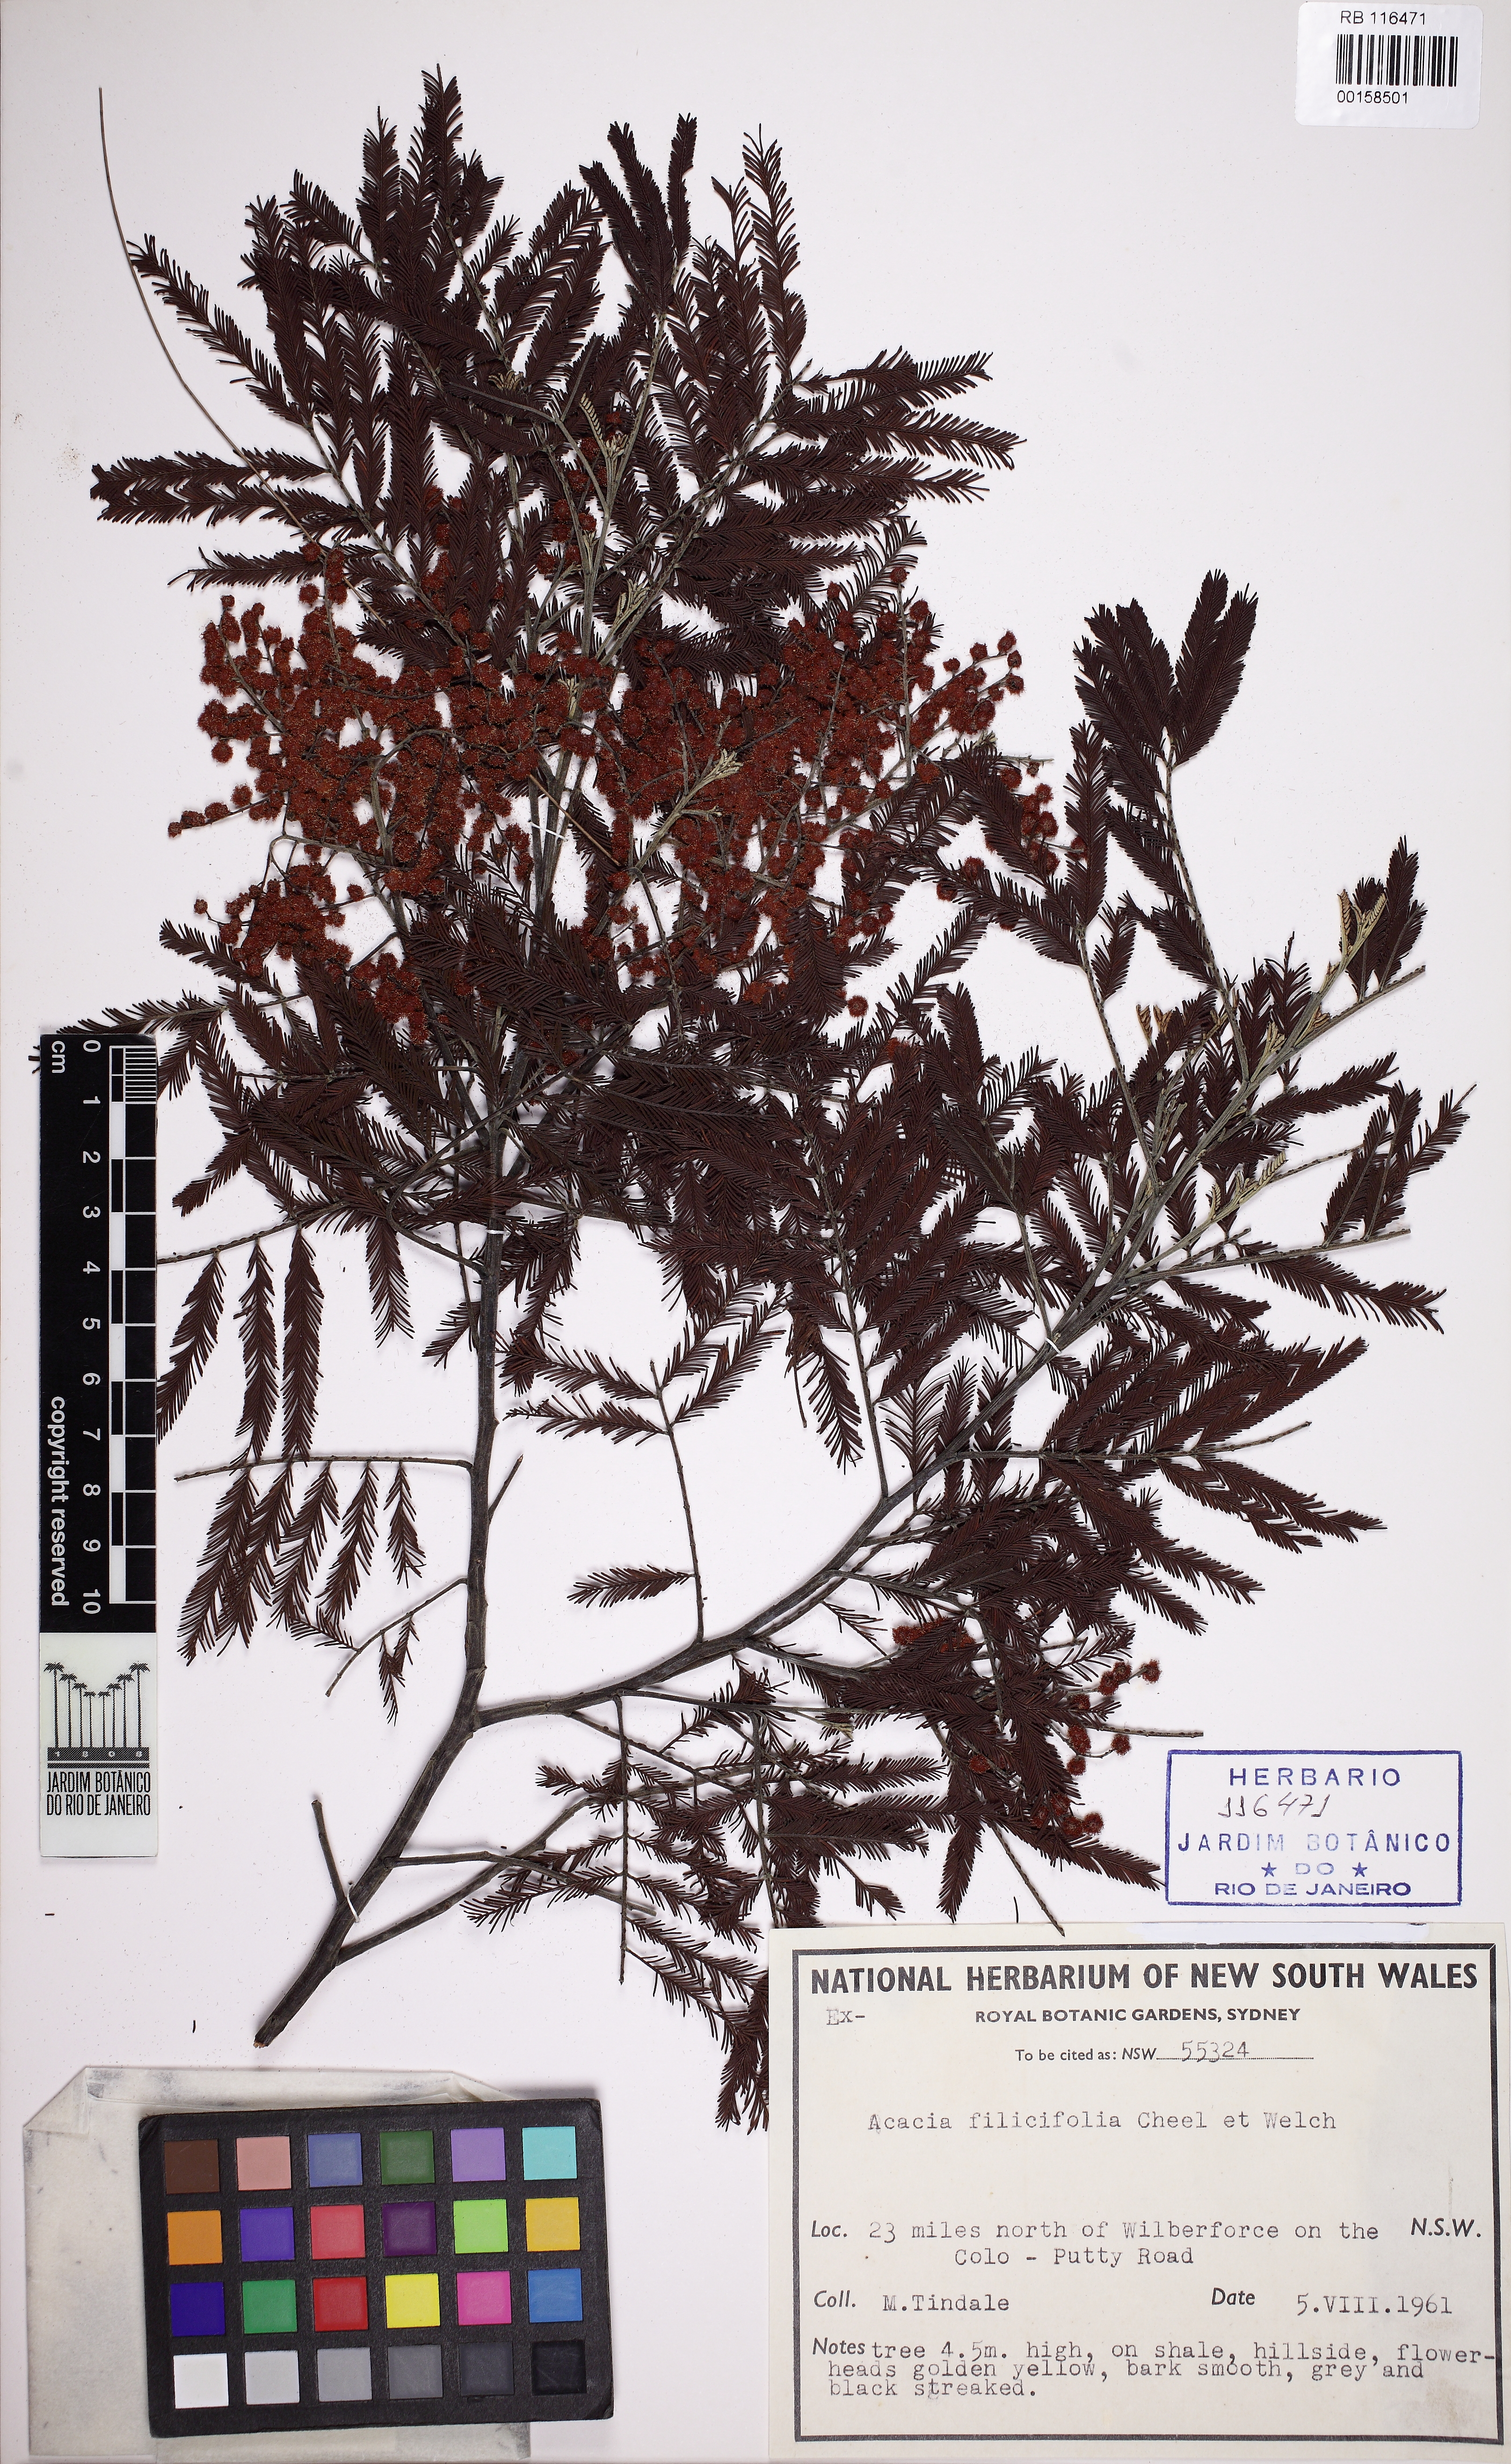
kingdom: Plantae
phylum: Tracheophyta
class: Magnoliopsida
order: Fabales
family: Fabaceae
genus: Acacia
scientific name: Acacia filicifolia
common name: Fern-leaved wattle
